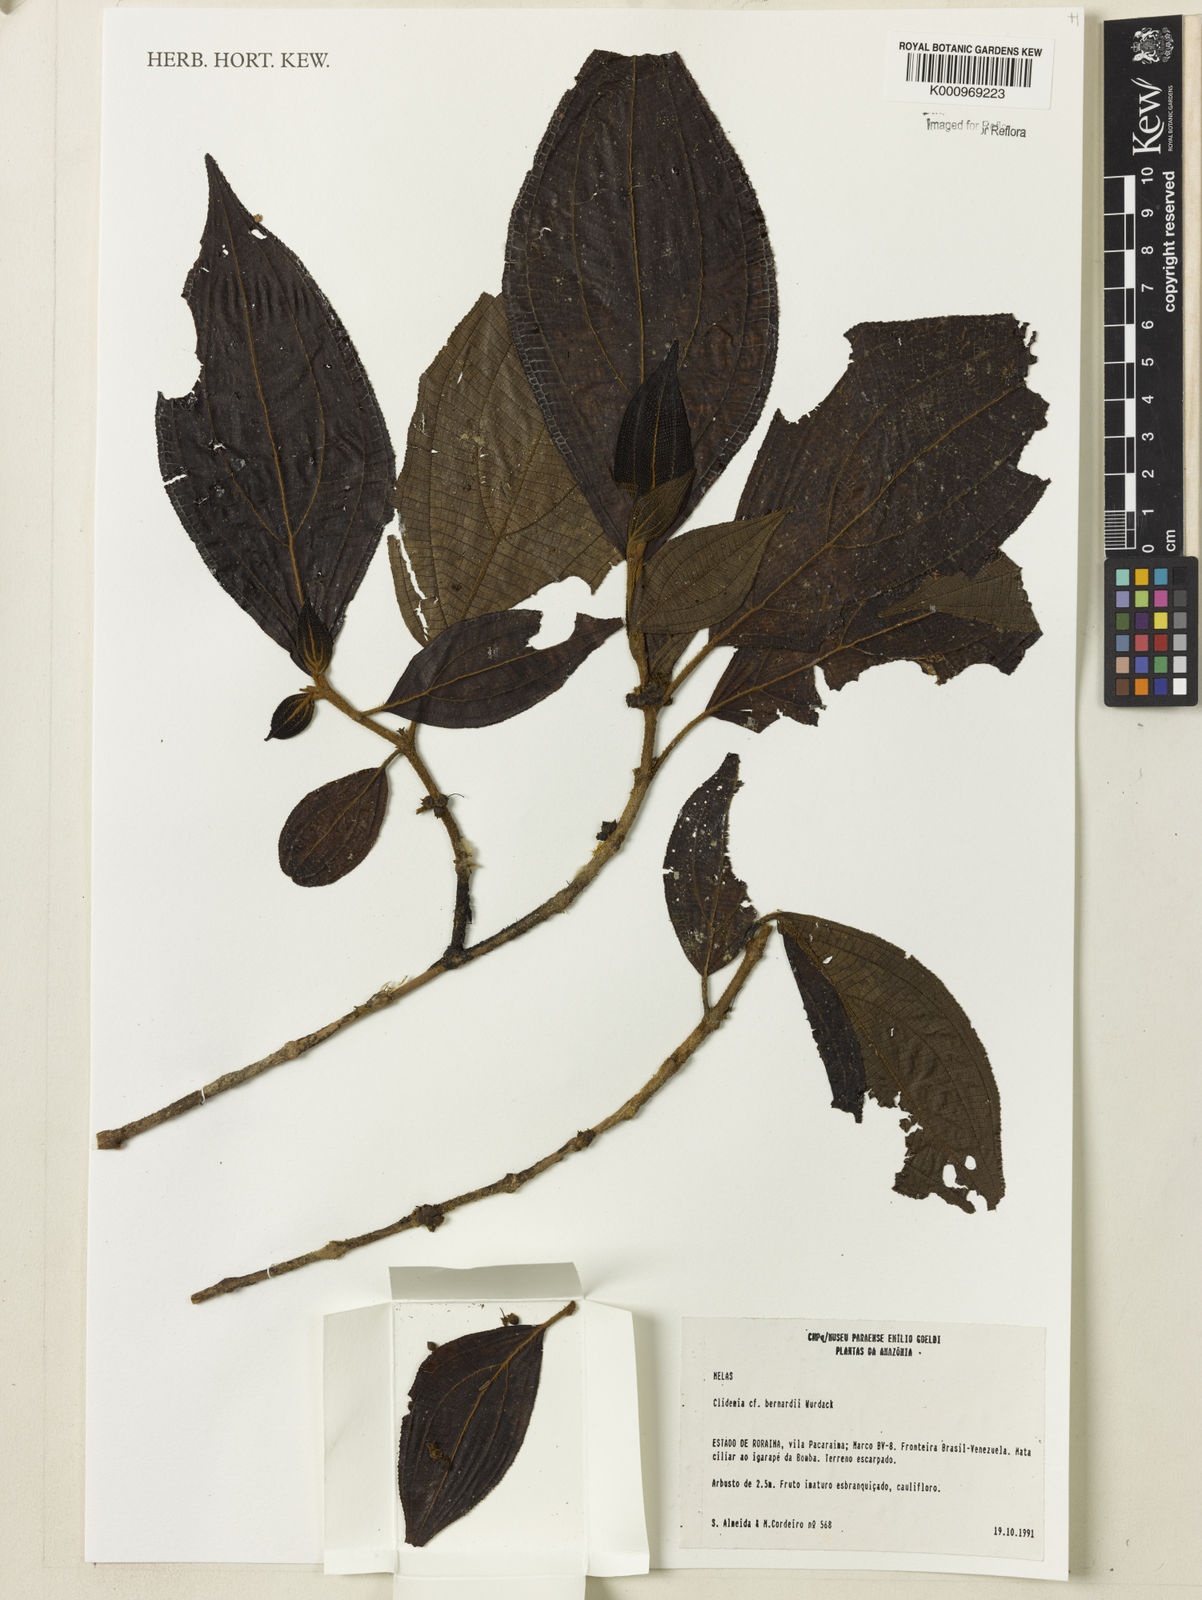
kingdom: Plantae
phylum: Tracheophyta
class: Magnoliopsida
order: Myrtales
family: Melastomataceae
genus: Miconia
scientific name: Miconia lucianobernardii
